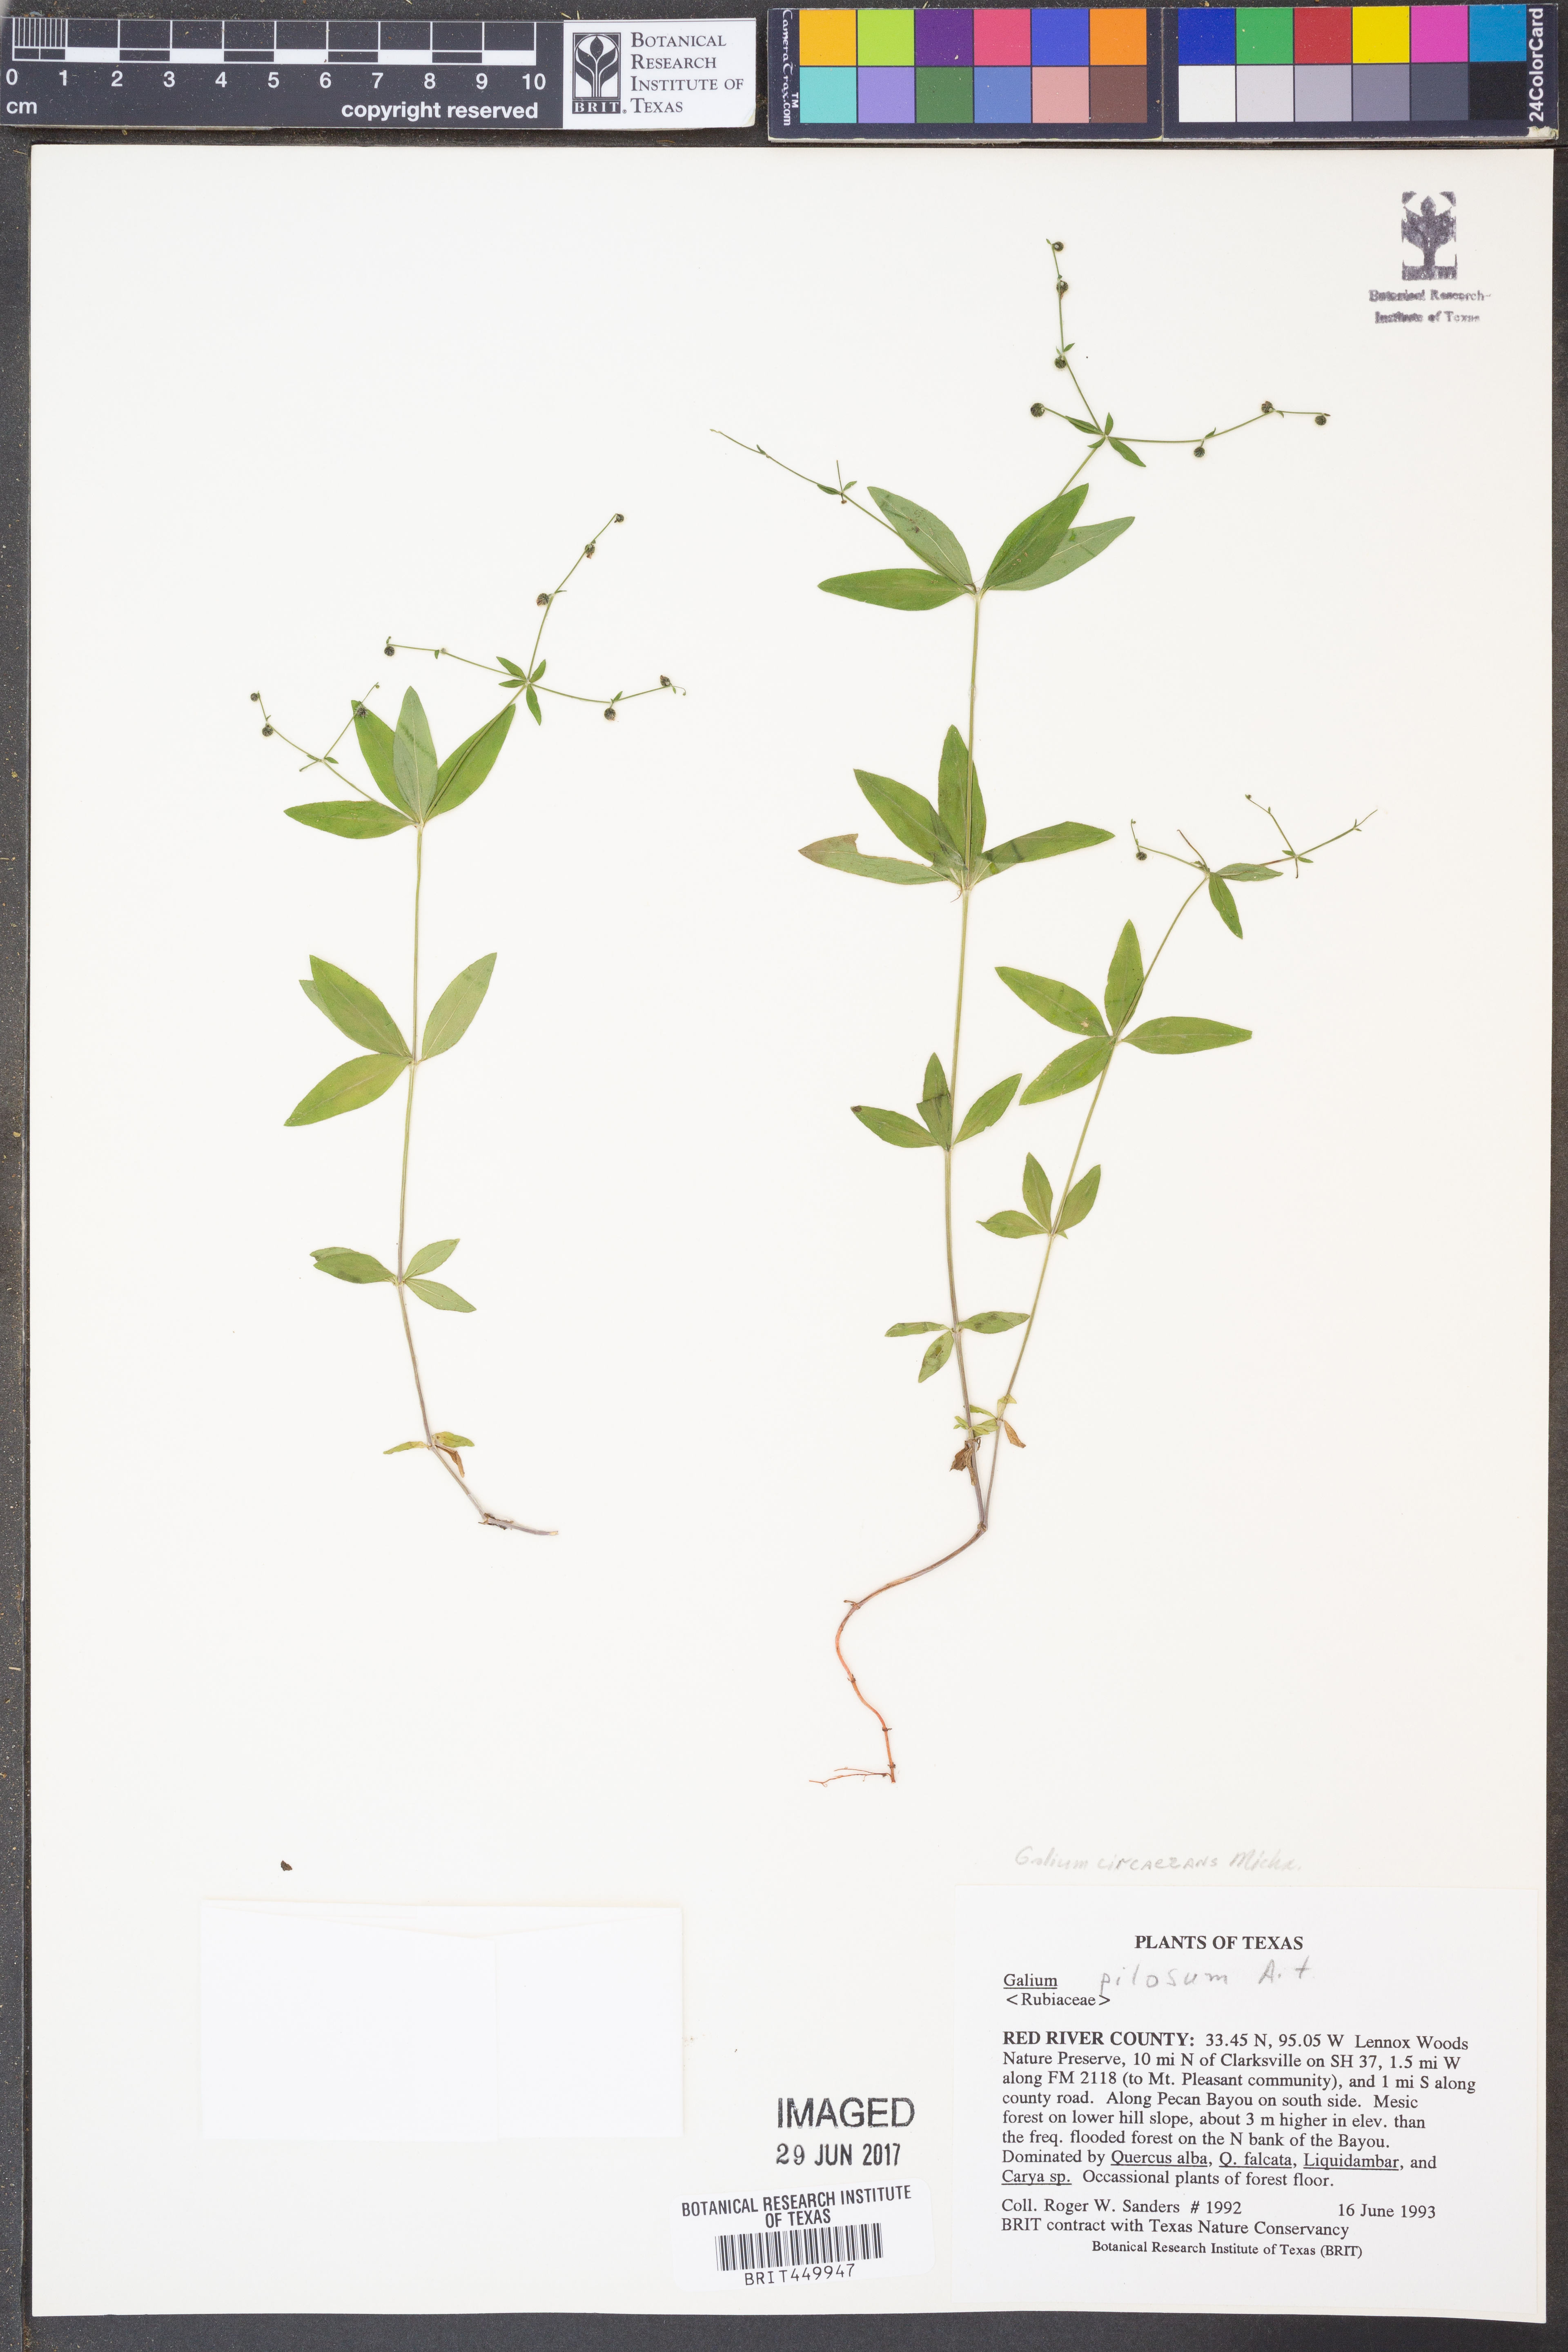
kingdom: Plantae
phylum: Tracheophyta
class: Magnoliopsida
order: Gentianales
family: Rubiaceae
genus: Galium
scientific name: Galium circaezans
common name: Forest bedstraw
